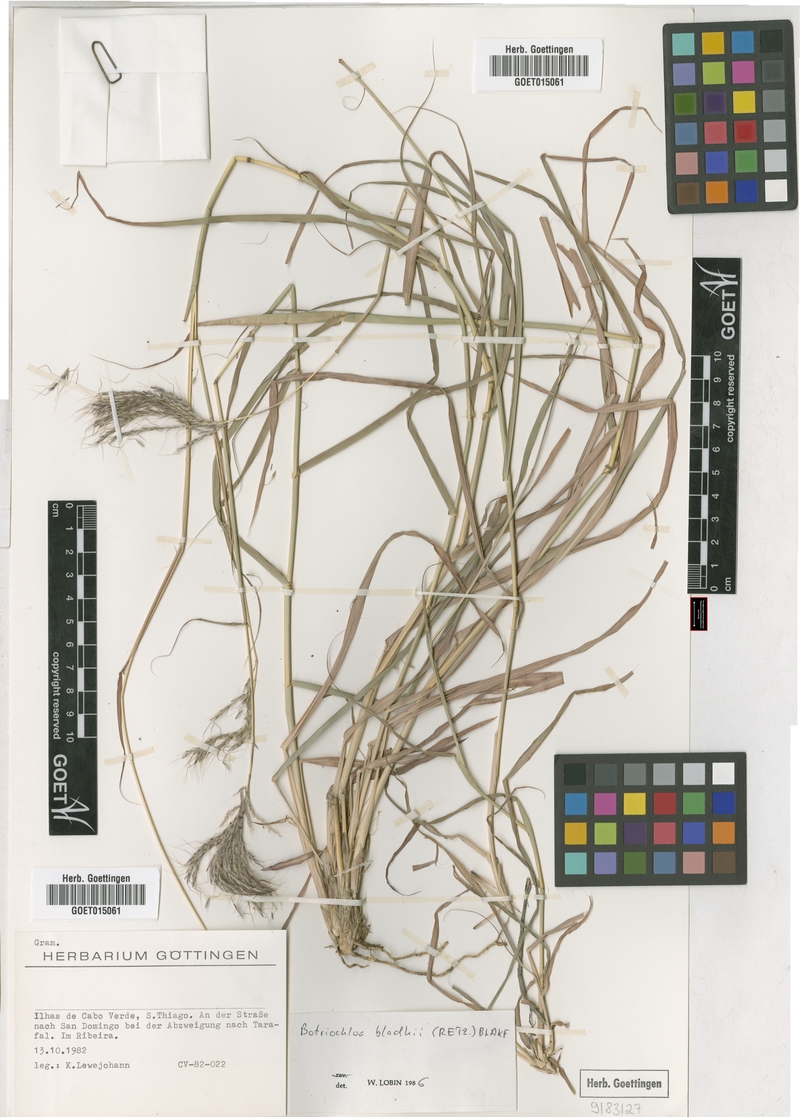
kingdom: Plantae
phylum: Tracheophyta
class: Liliopsida
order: Poales
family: Poaceae
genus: Bothriochloa
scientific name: Bothriochloa bladhii
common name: Caucasian bluestem
